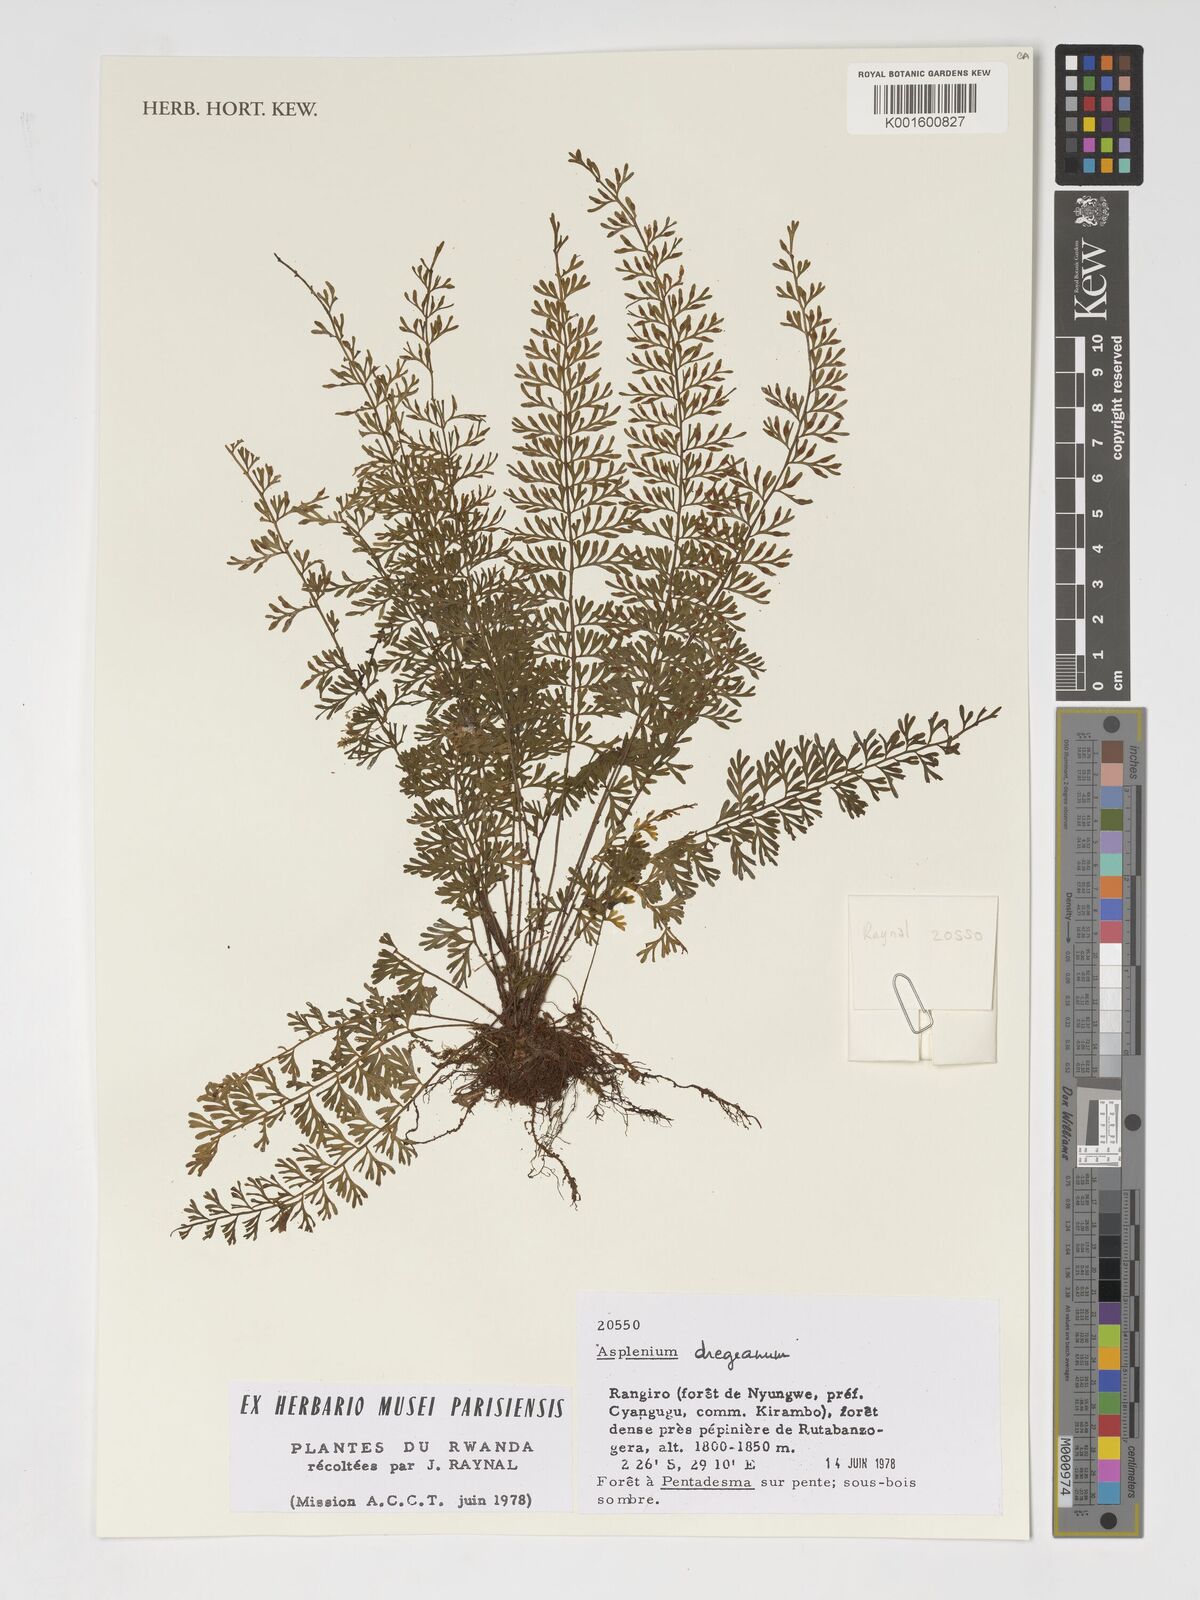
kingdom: Plantae
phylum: Tracheophyta
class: Polypodiopsida
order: Polypodiales
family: Aspleniaceae
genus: Asplenium
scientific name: Asplenium dregeanum
